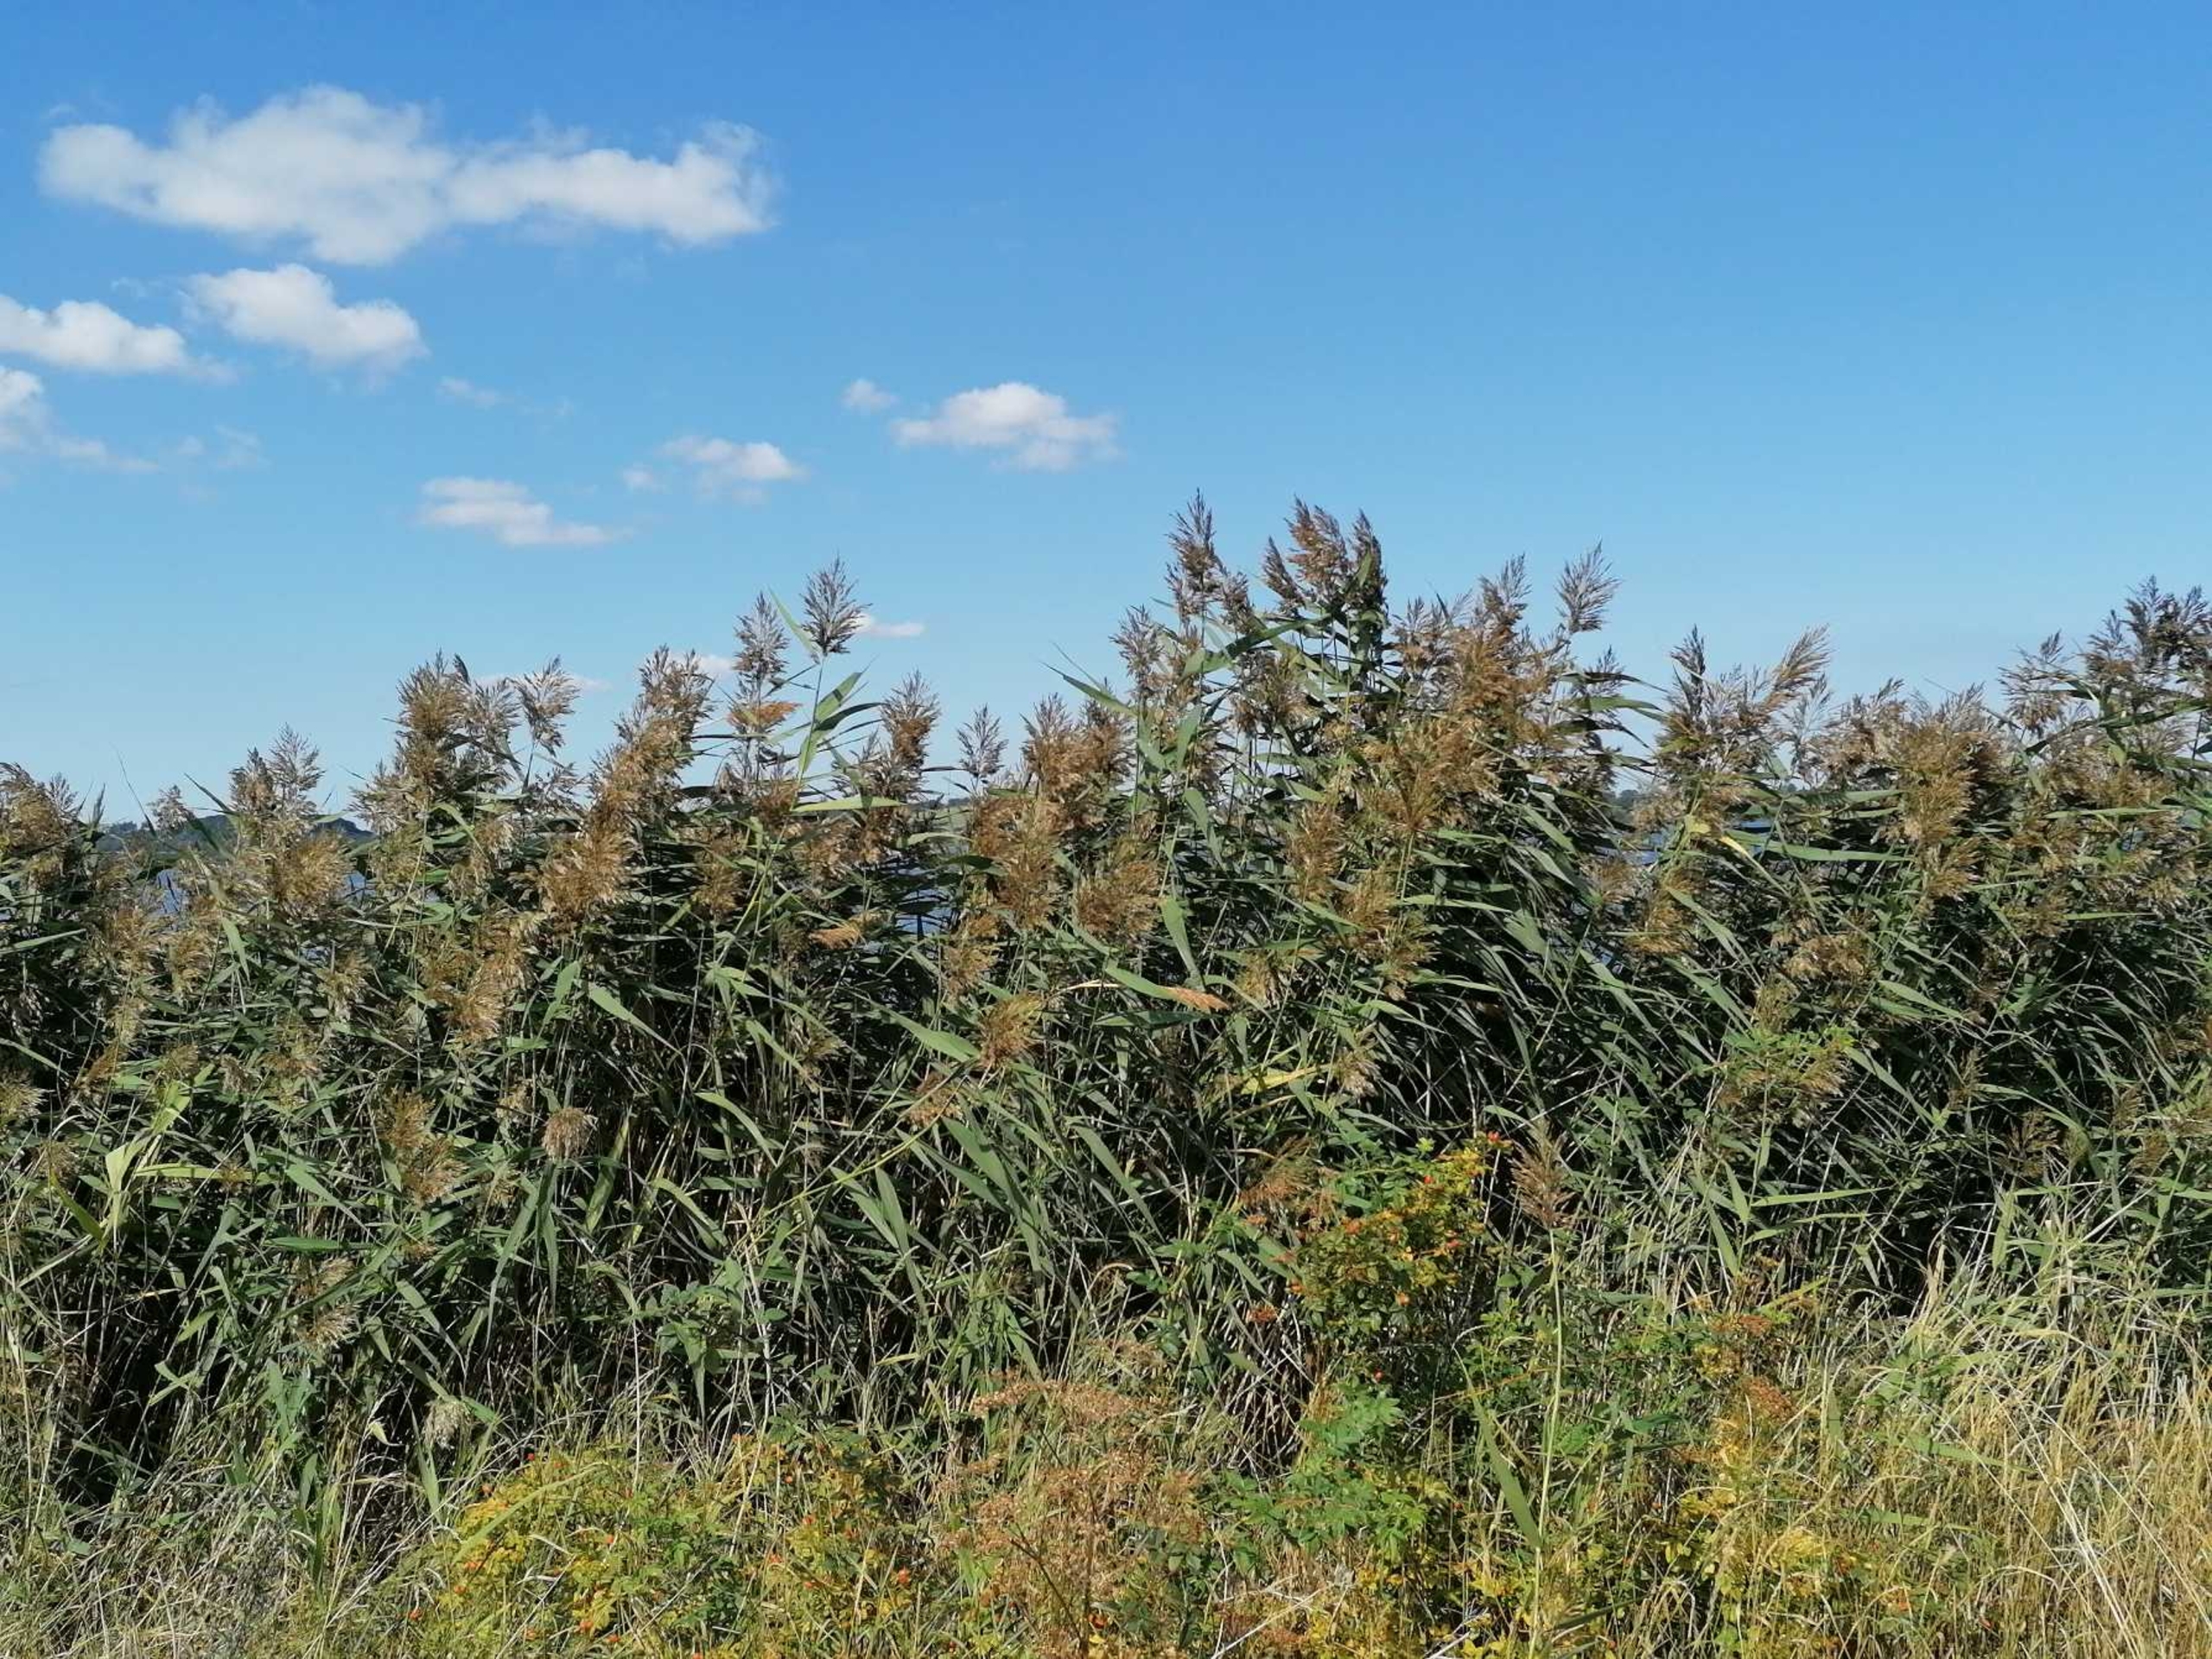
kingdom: Plantae
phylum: Tracheophyta
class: Liliopsida
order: Poales
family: Poaceae
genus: Phragmites
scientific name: Phragmites australis
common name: Tagrør
